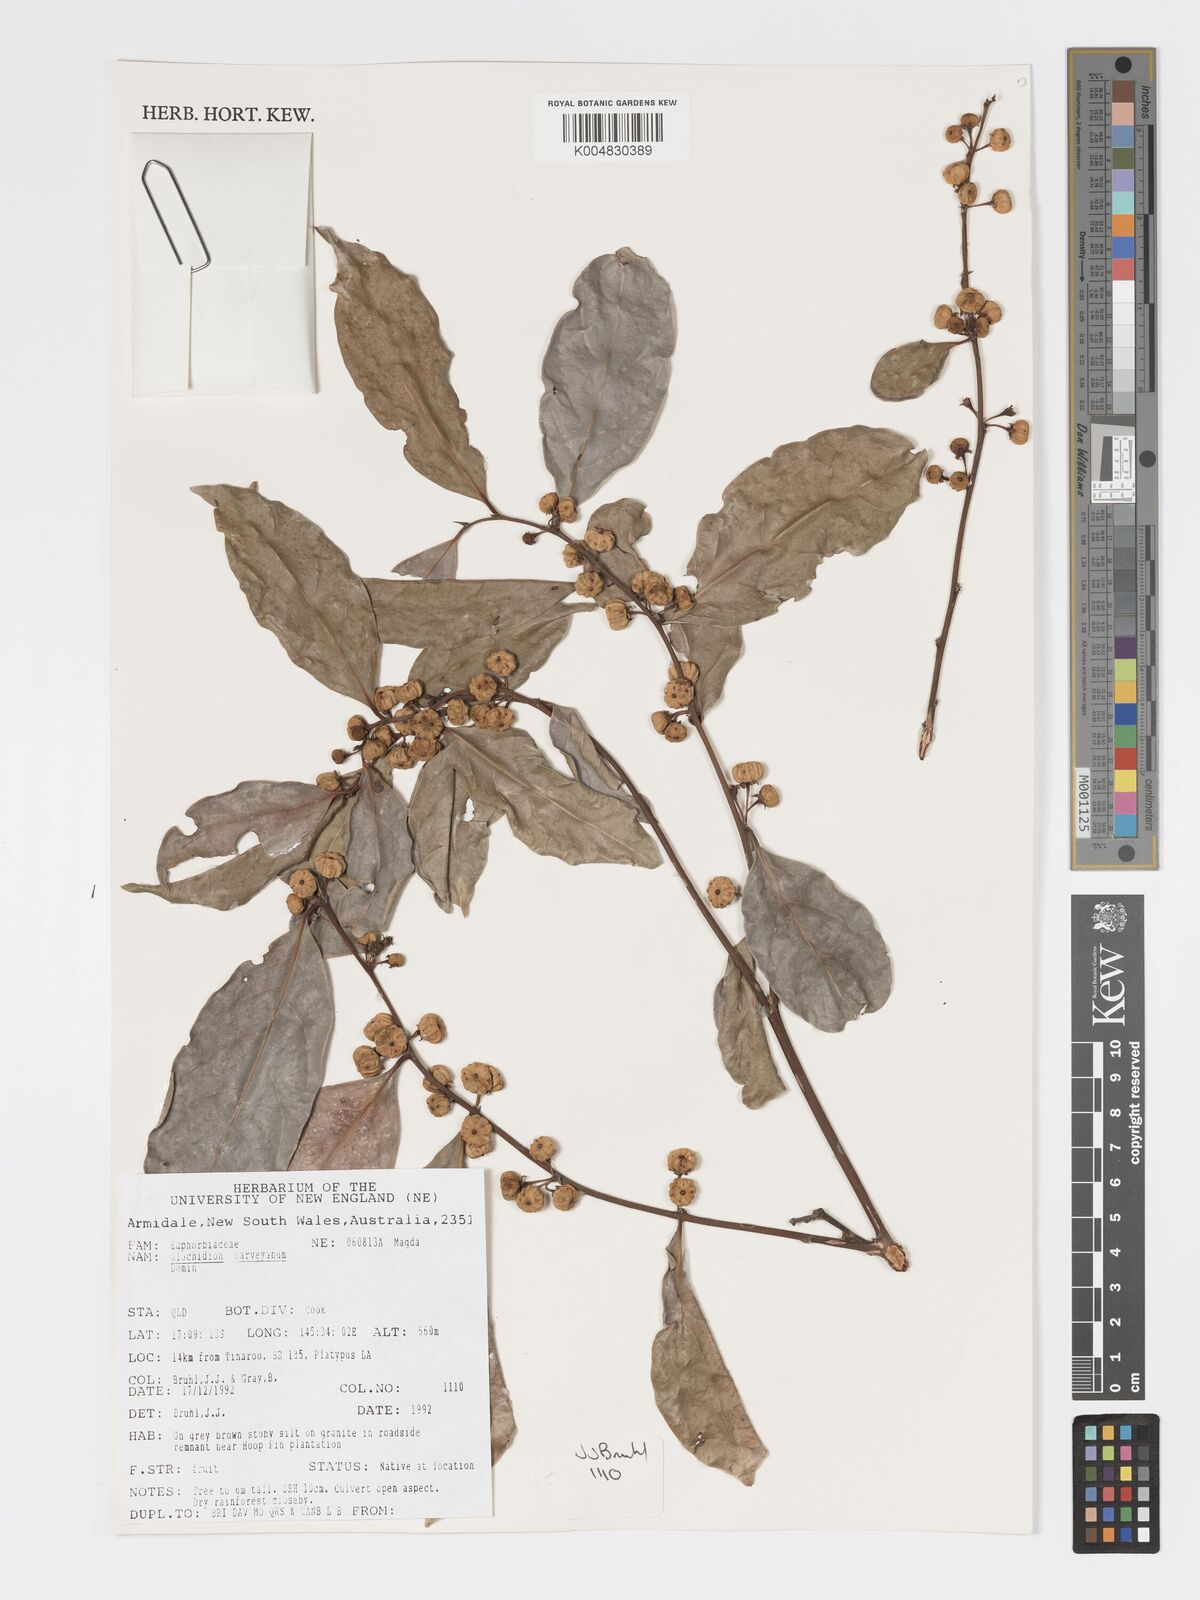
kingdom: Plantae
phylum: Tracheophyta
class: Magnoliopsida
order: Malpighiales
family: Phyllanthaceae
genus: Glochidion
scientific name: Glochidion harveyanum
